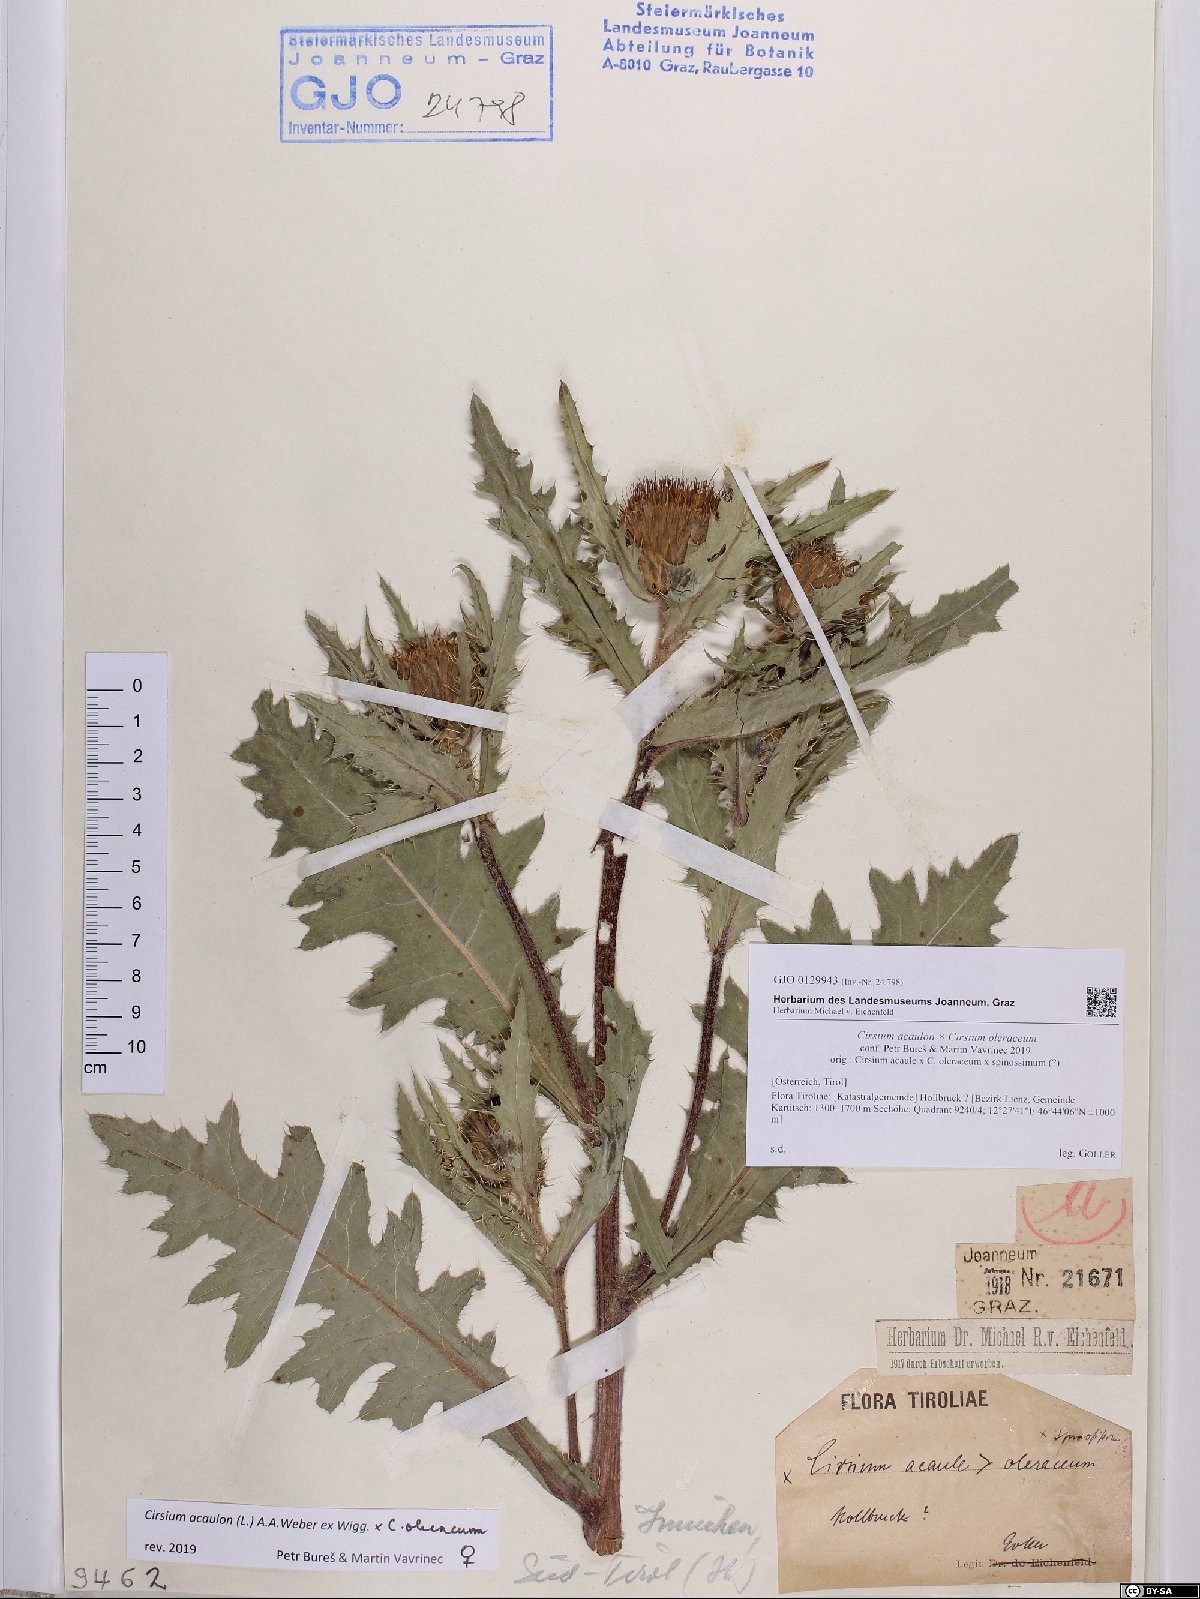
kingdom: Plantae
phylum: Tracheophyta
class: Magnoliopsida
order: Asterales
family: Asteraceae
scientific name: Asteraceae
